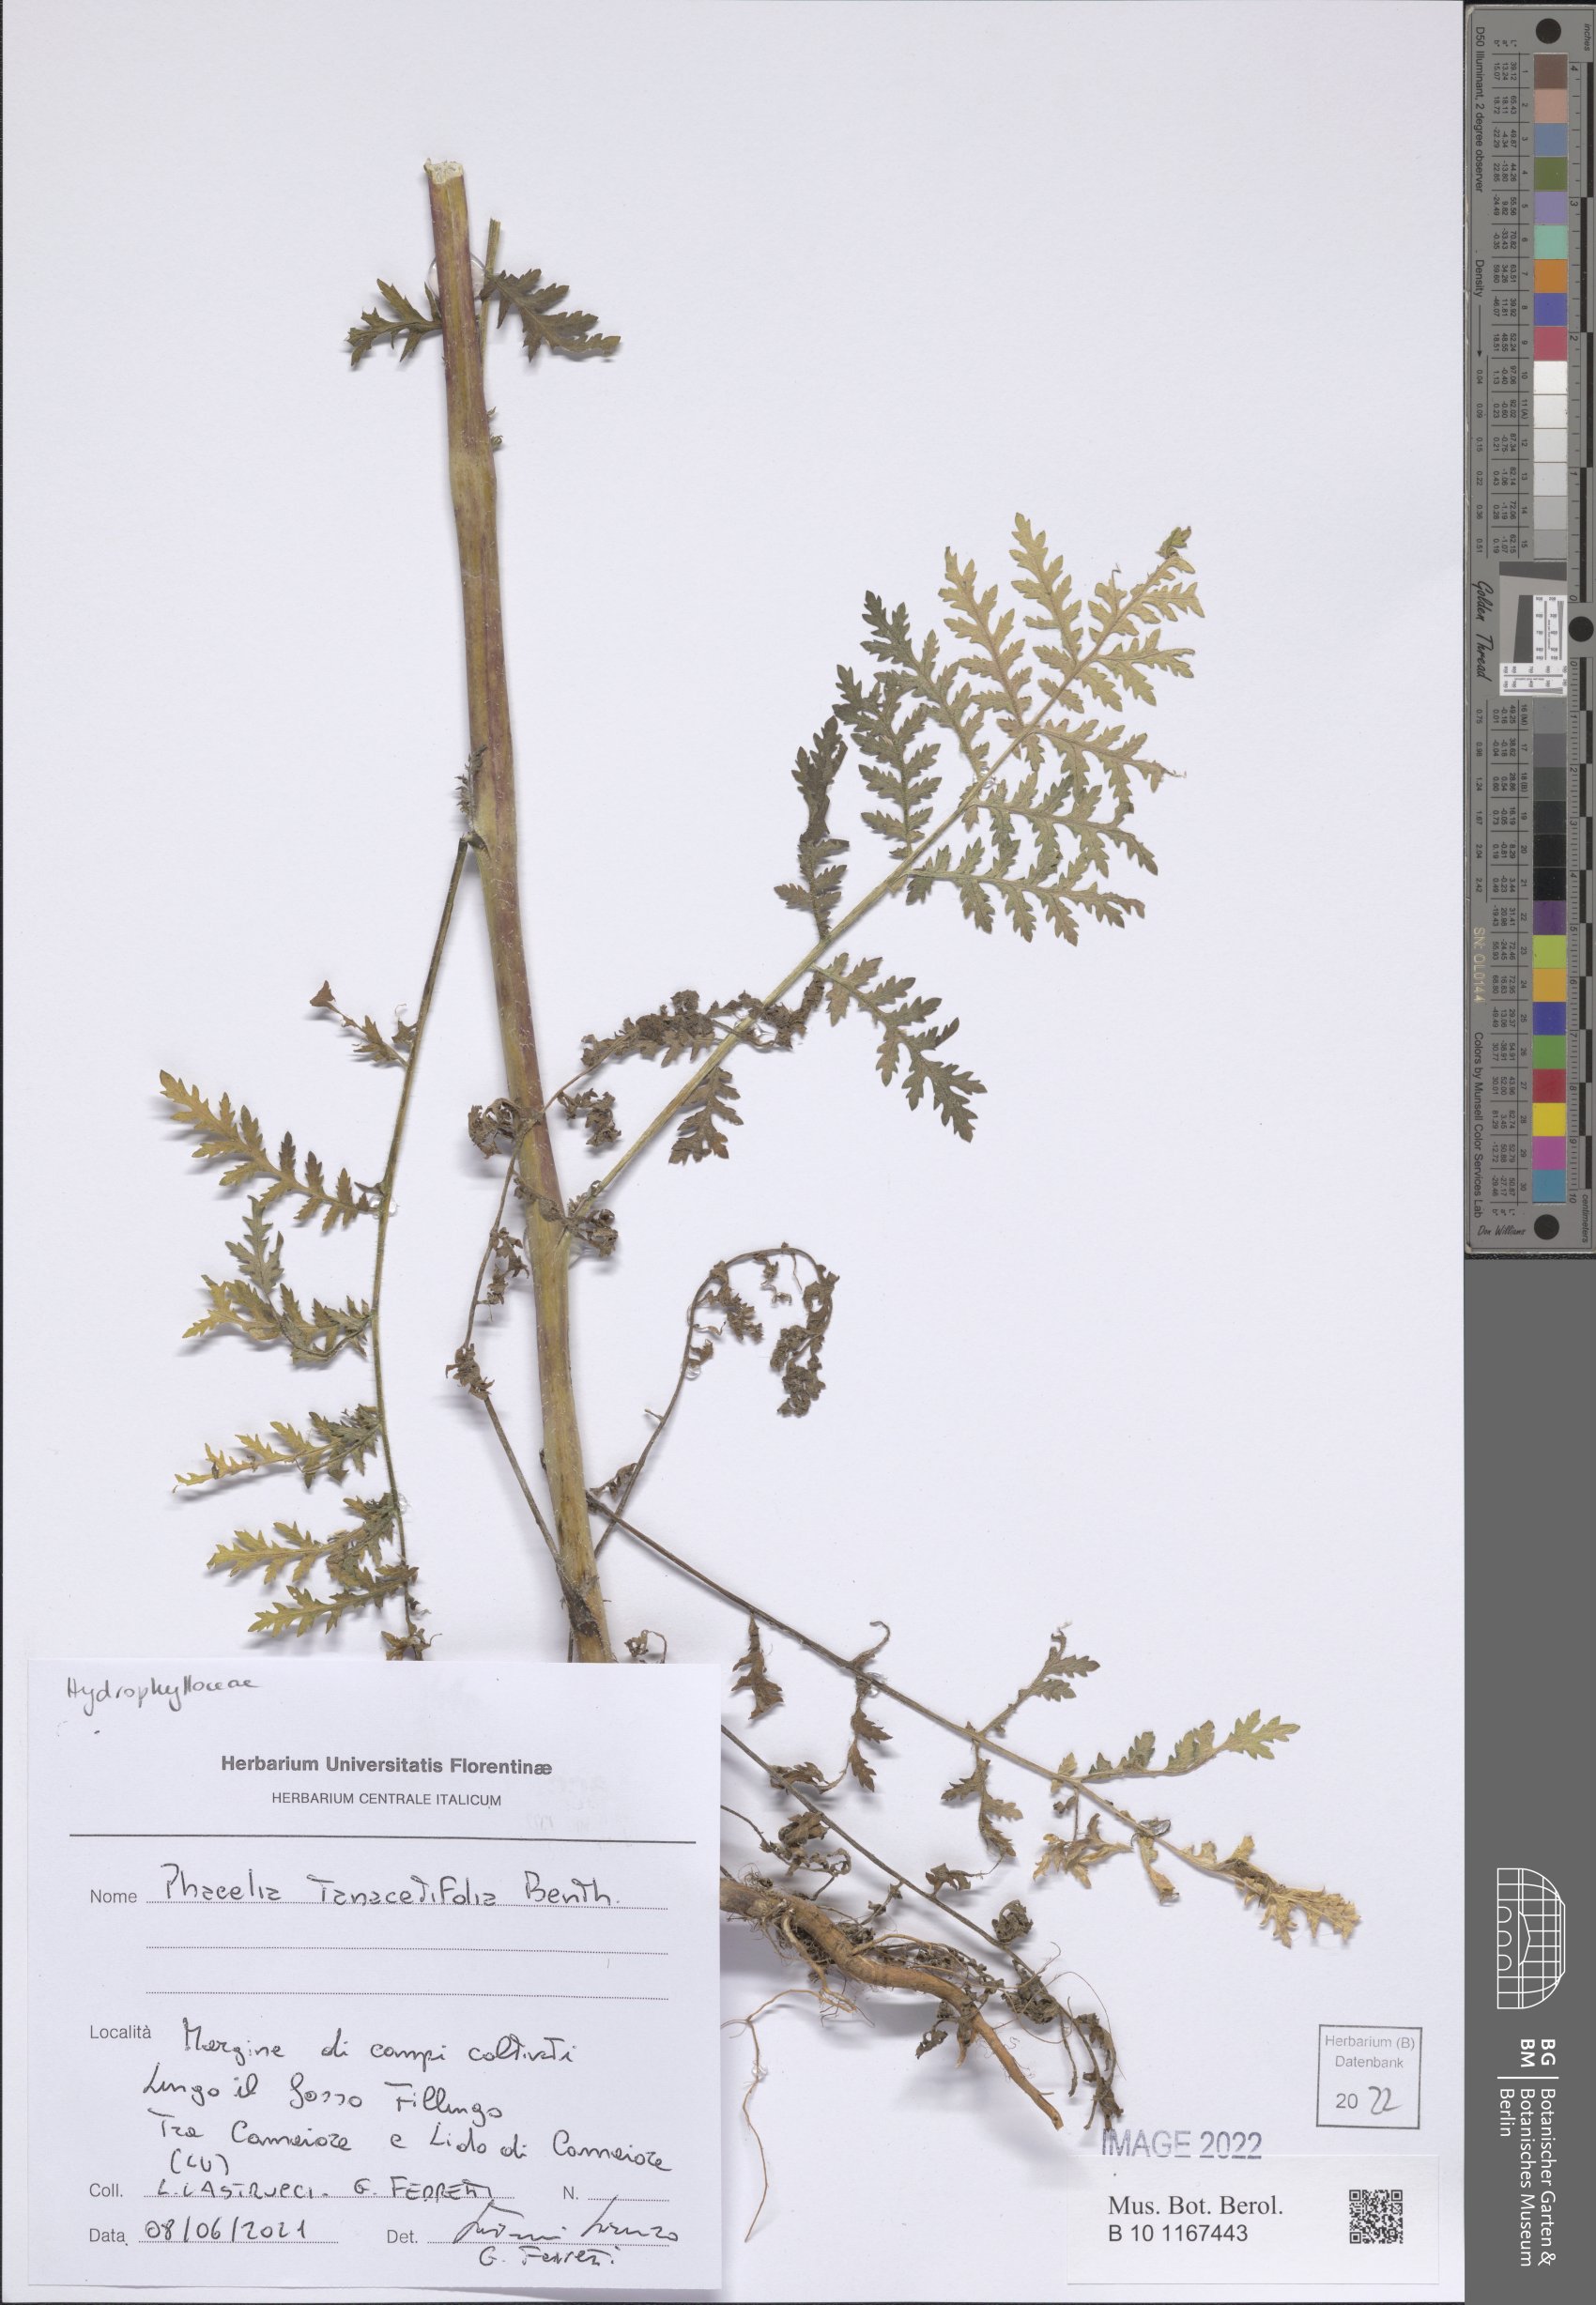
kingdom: Plantae
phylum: Tracheophyta
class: Magnoliopsida
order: Boraginales
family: Hydrophyllaceae
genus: Phacelia
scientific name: Phacelia tanacetifolia
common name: Phacelia
